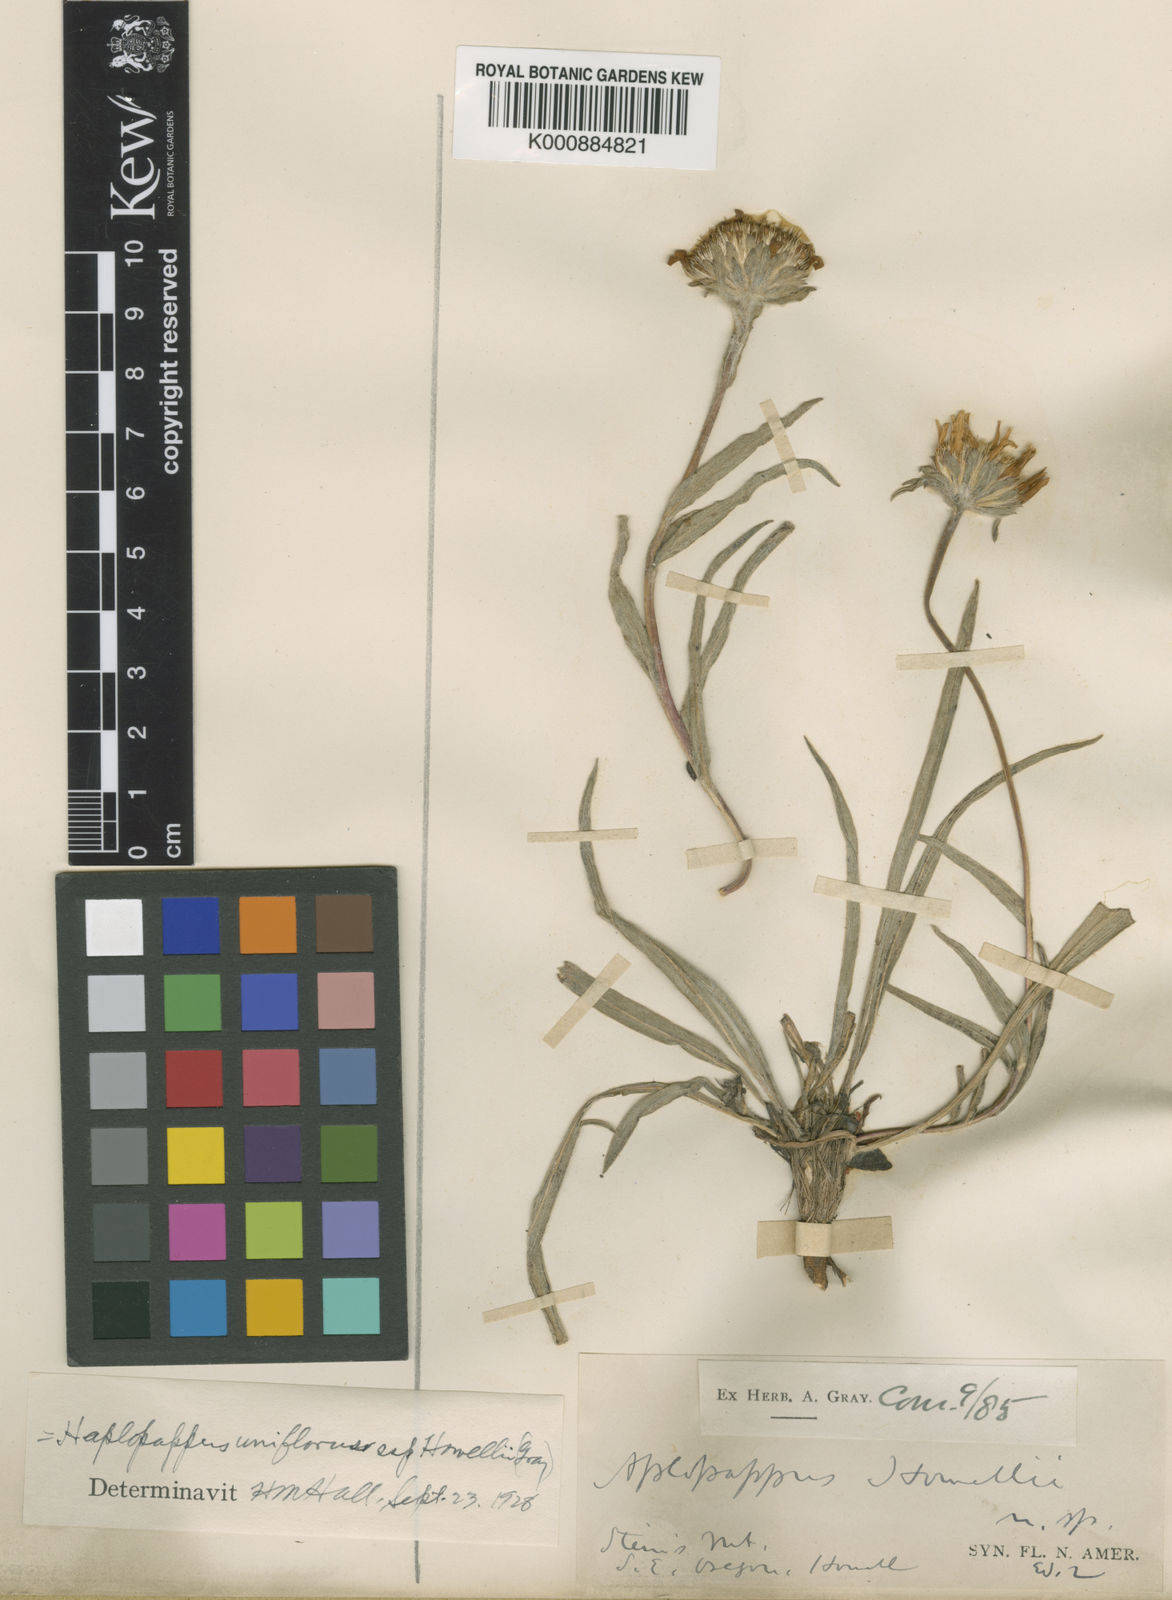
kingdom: Plantae
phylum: Tracheophyta
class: Magnoliopsida
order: Asterales
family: Asteraceae
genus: Pyrrocoma
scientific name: Pyrrocoma uniflora
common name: Plantain goldenweed
